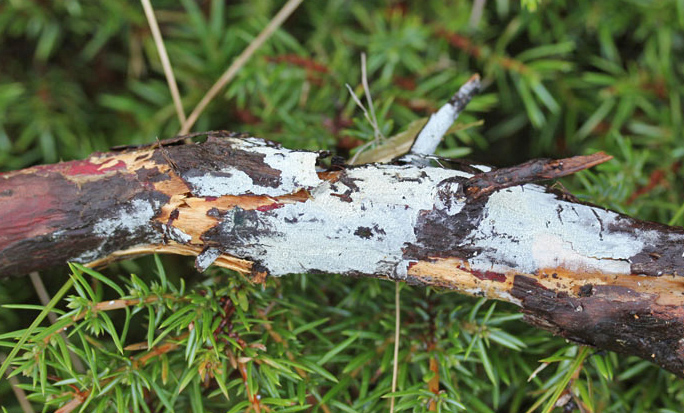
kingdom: Fungi
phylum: Basidiomycota
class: Agaricomycetes
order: Trechisporales
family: Hydnodontaceae
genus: Brevicellicium
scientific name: Brevicellicium olivascens
